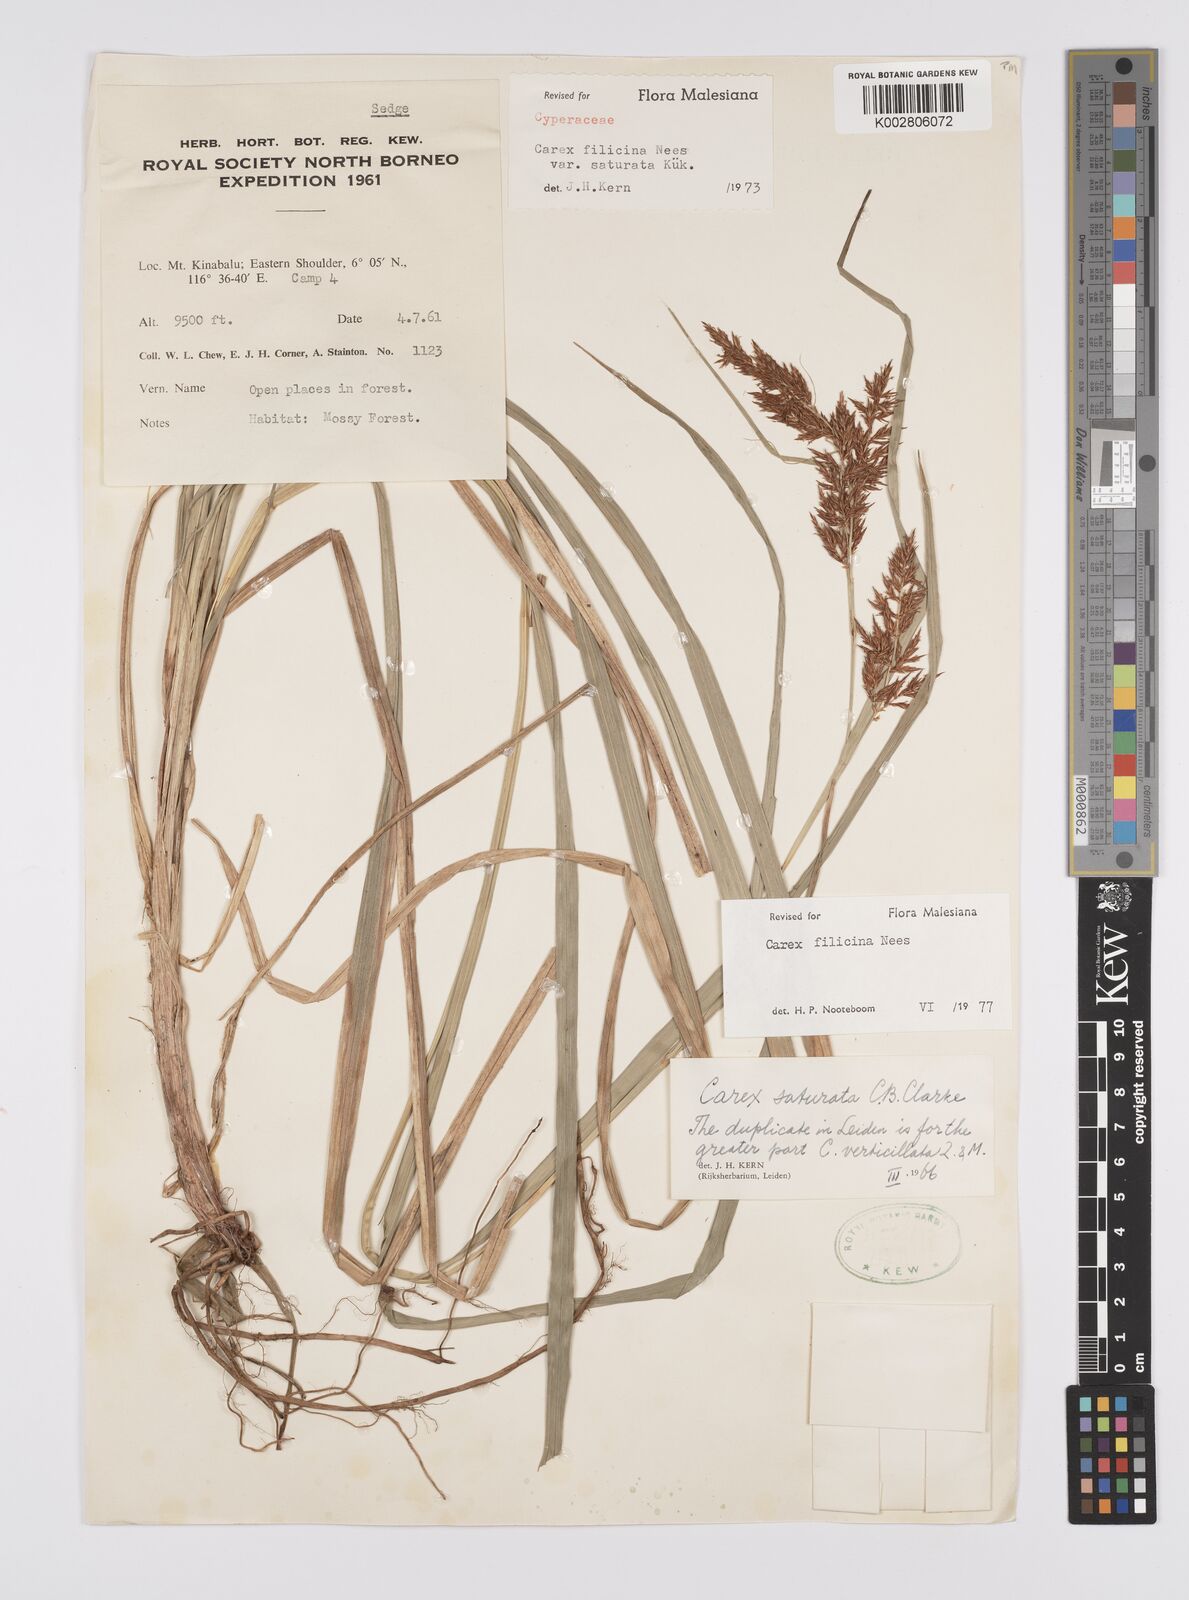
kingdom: Plantae
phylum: Tracheophyta
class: Liliopsida
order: Poales
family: Cyperaceae
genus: Carex
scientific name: Carex filicina
